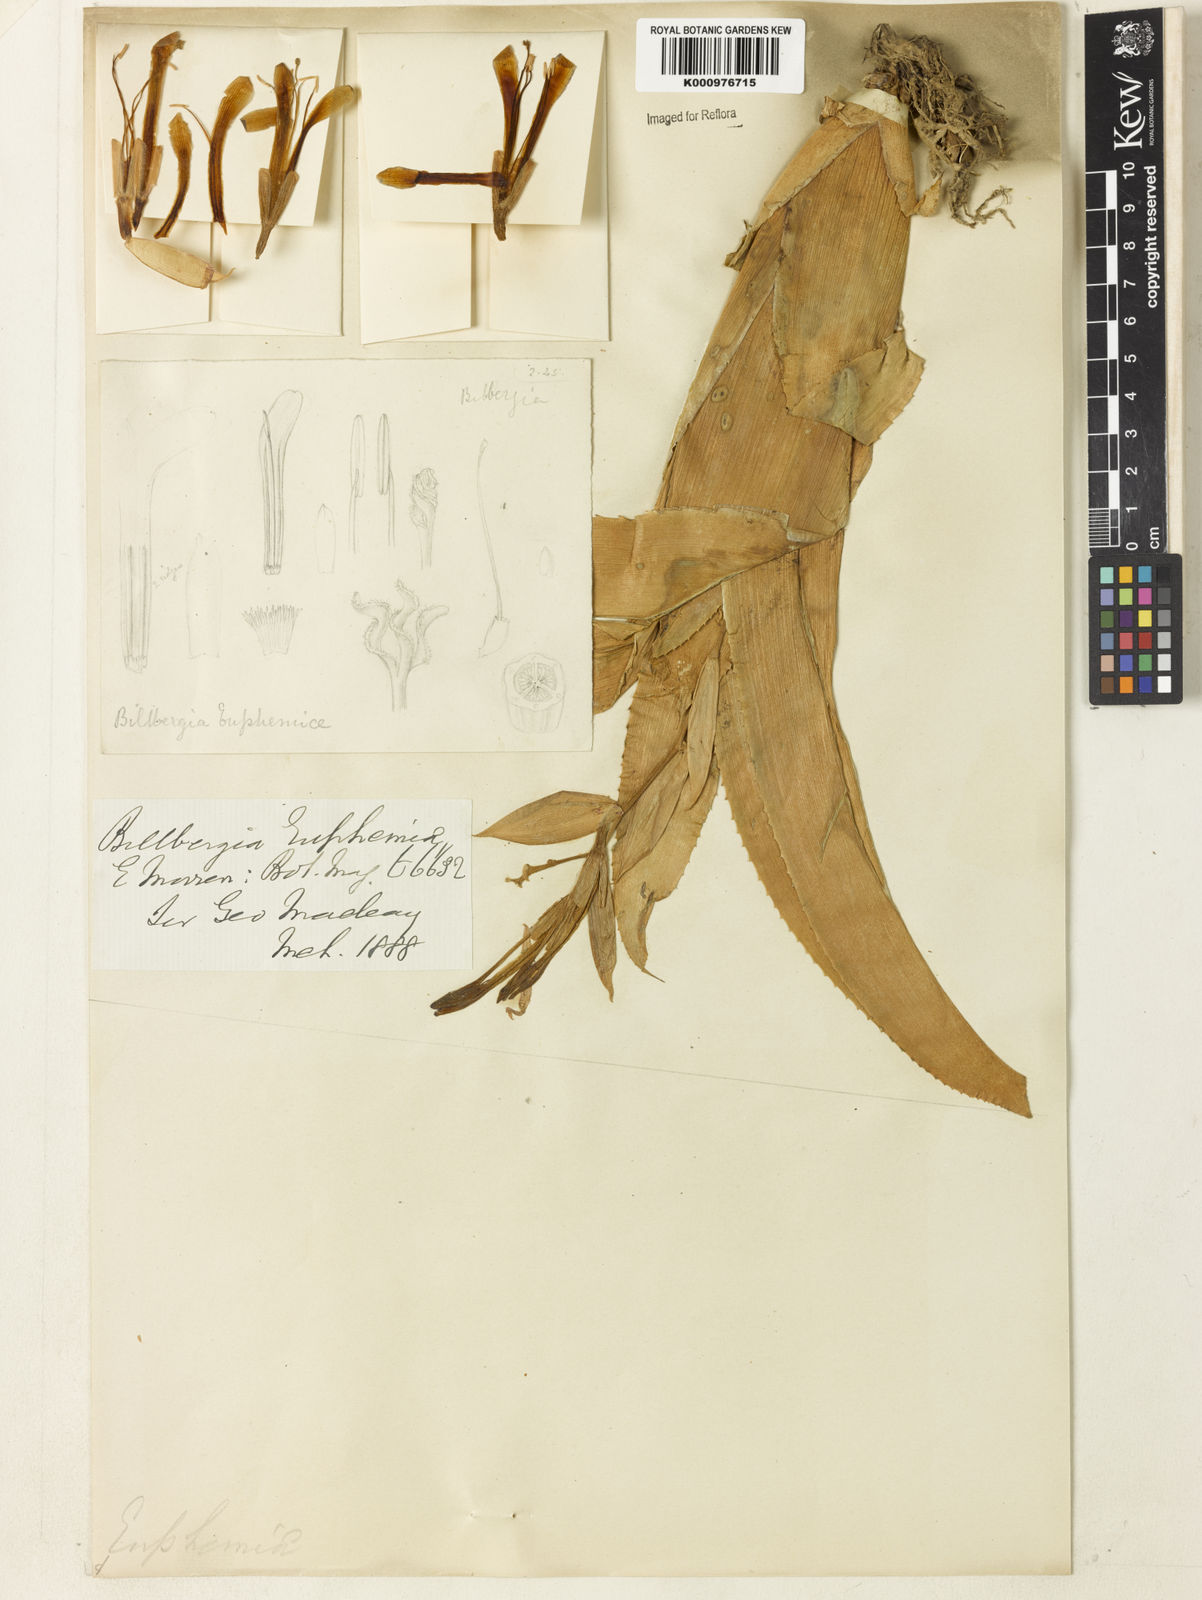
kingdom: Plantae
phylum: Tracheophyta
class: Liliopsida
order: Poales
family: Bromeliaceae
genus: Billbergia
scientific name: Billbergia euphemiae
